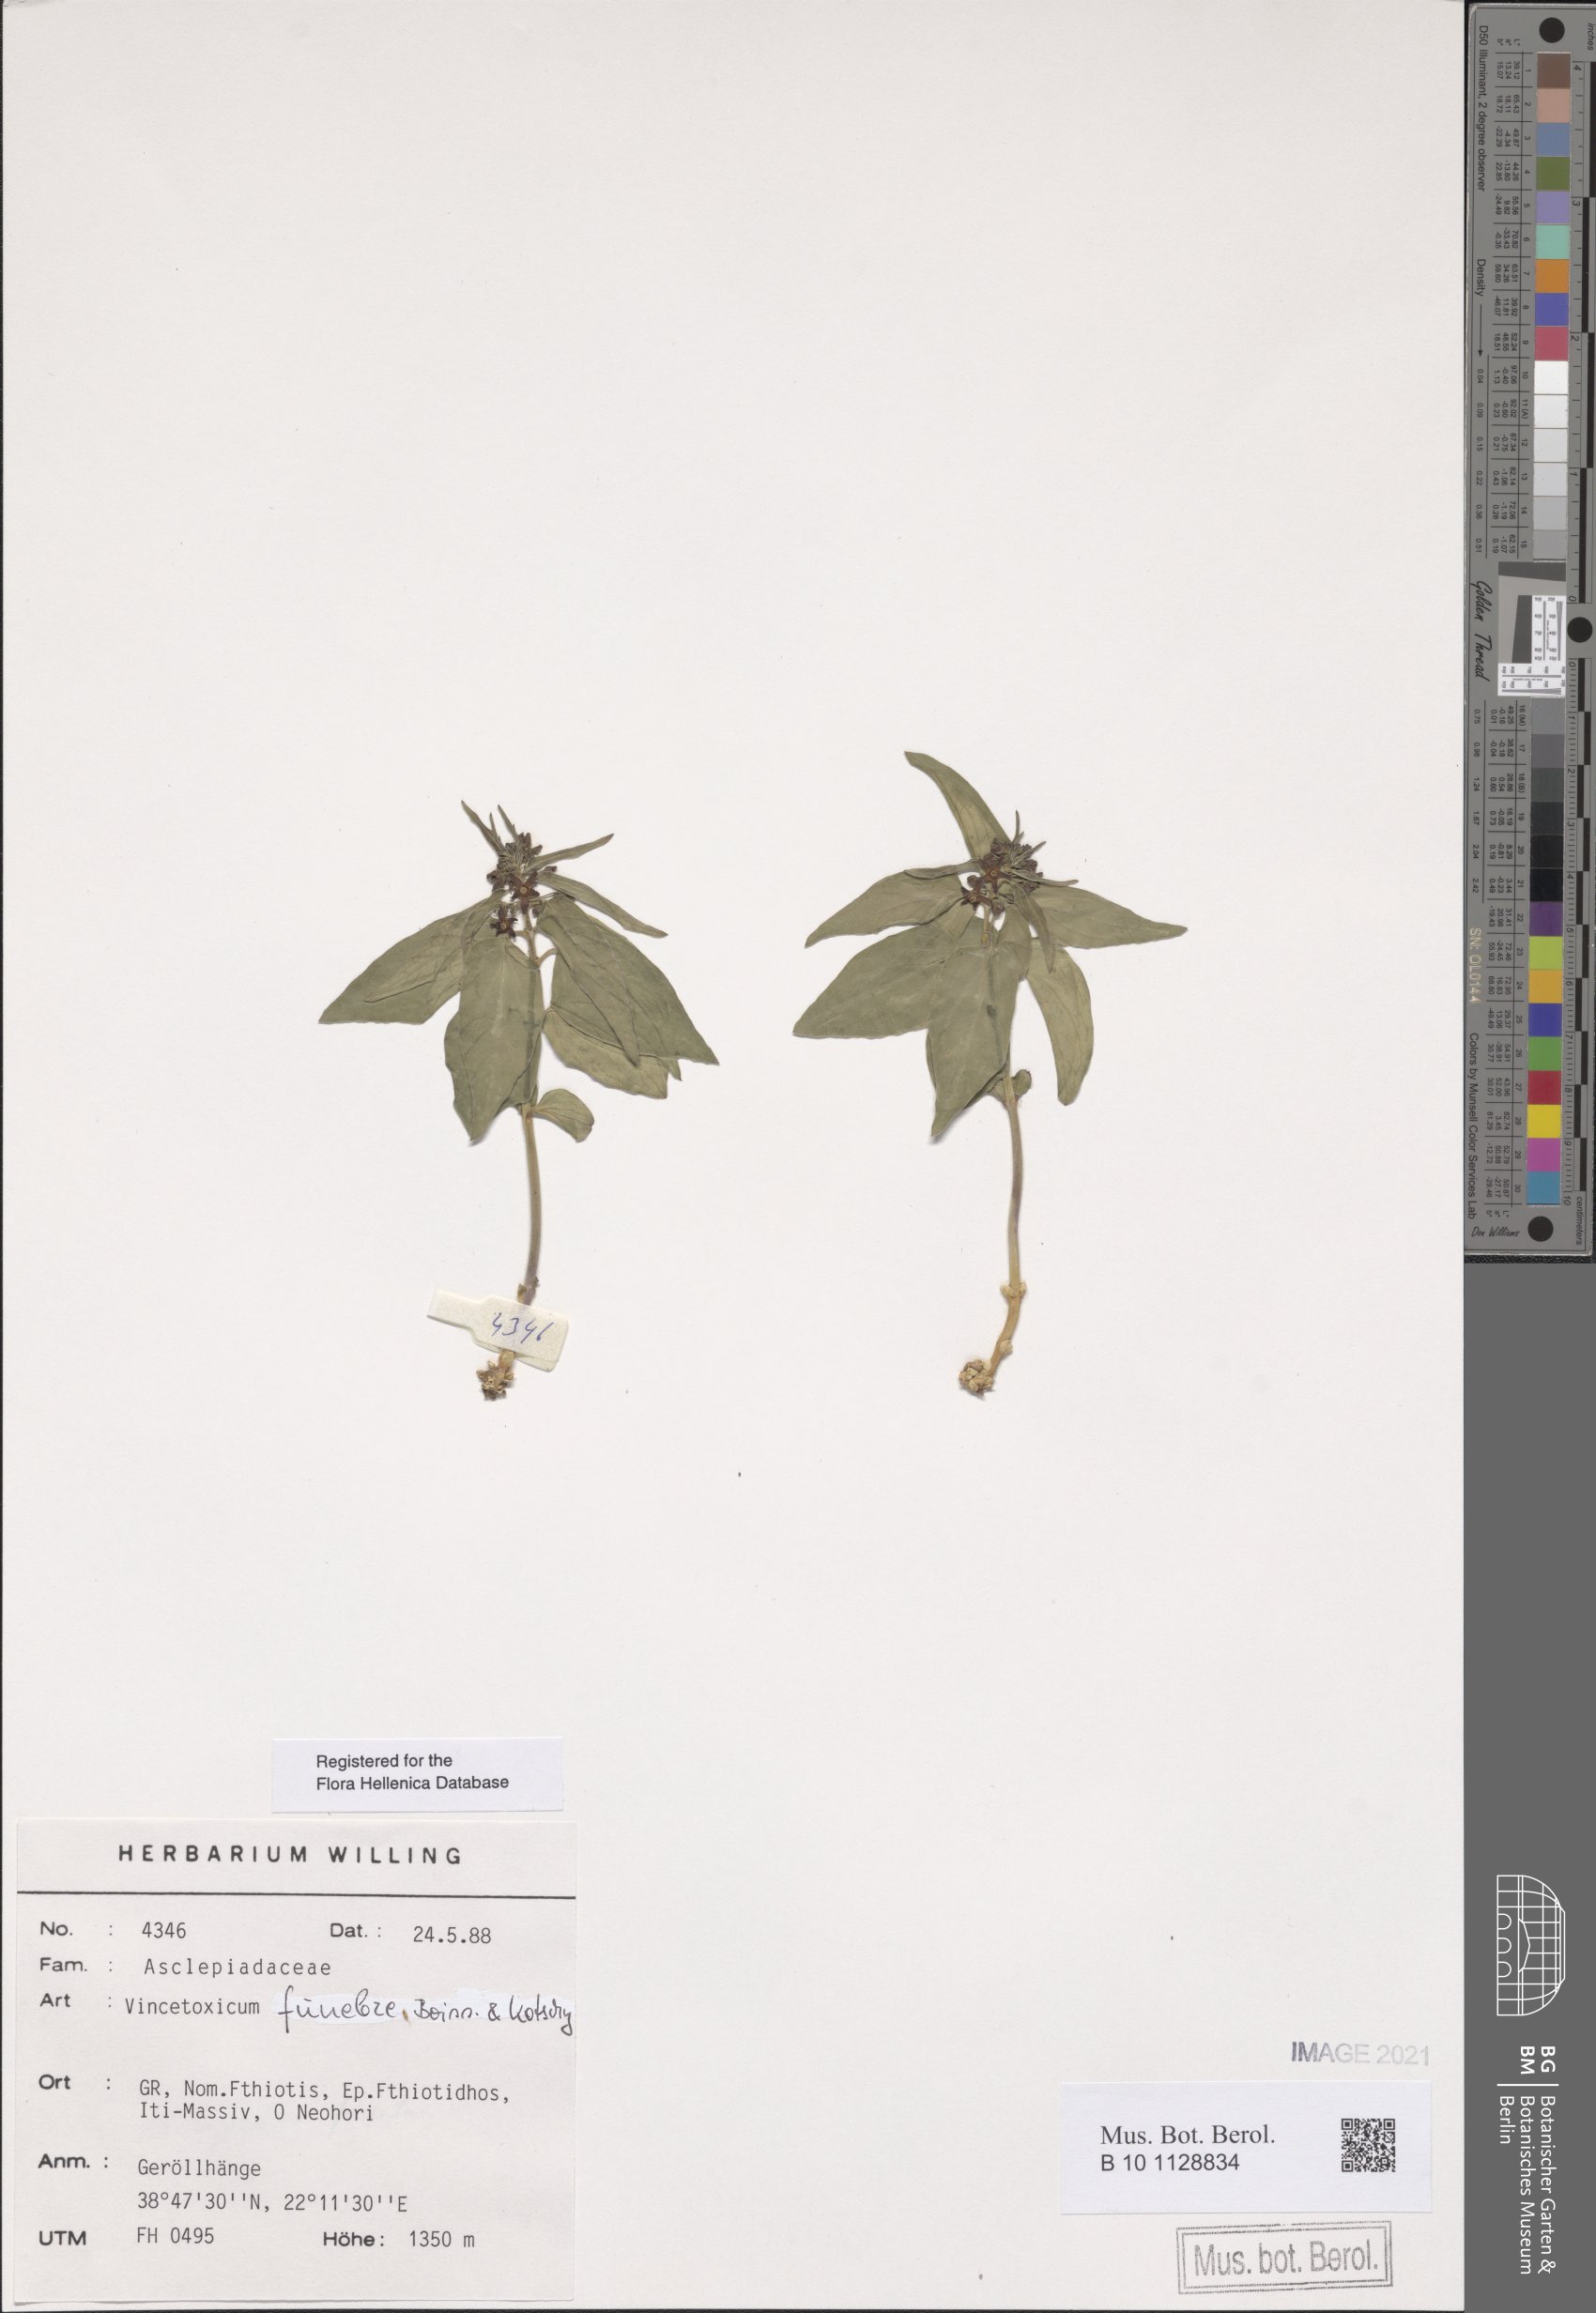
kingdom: Plantae
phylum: Tracheophyta
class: Magnoliopsida
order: Gentianales
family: Apocynaceae
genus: Vincetoxicum
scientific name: Vincetoxicum funebre
